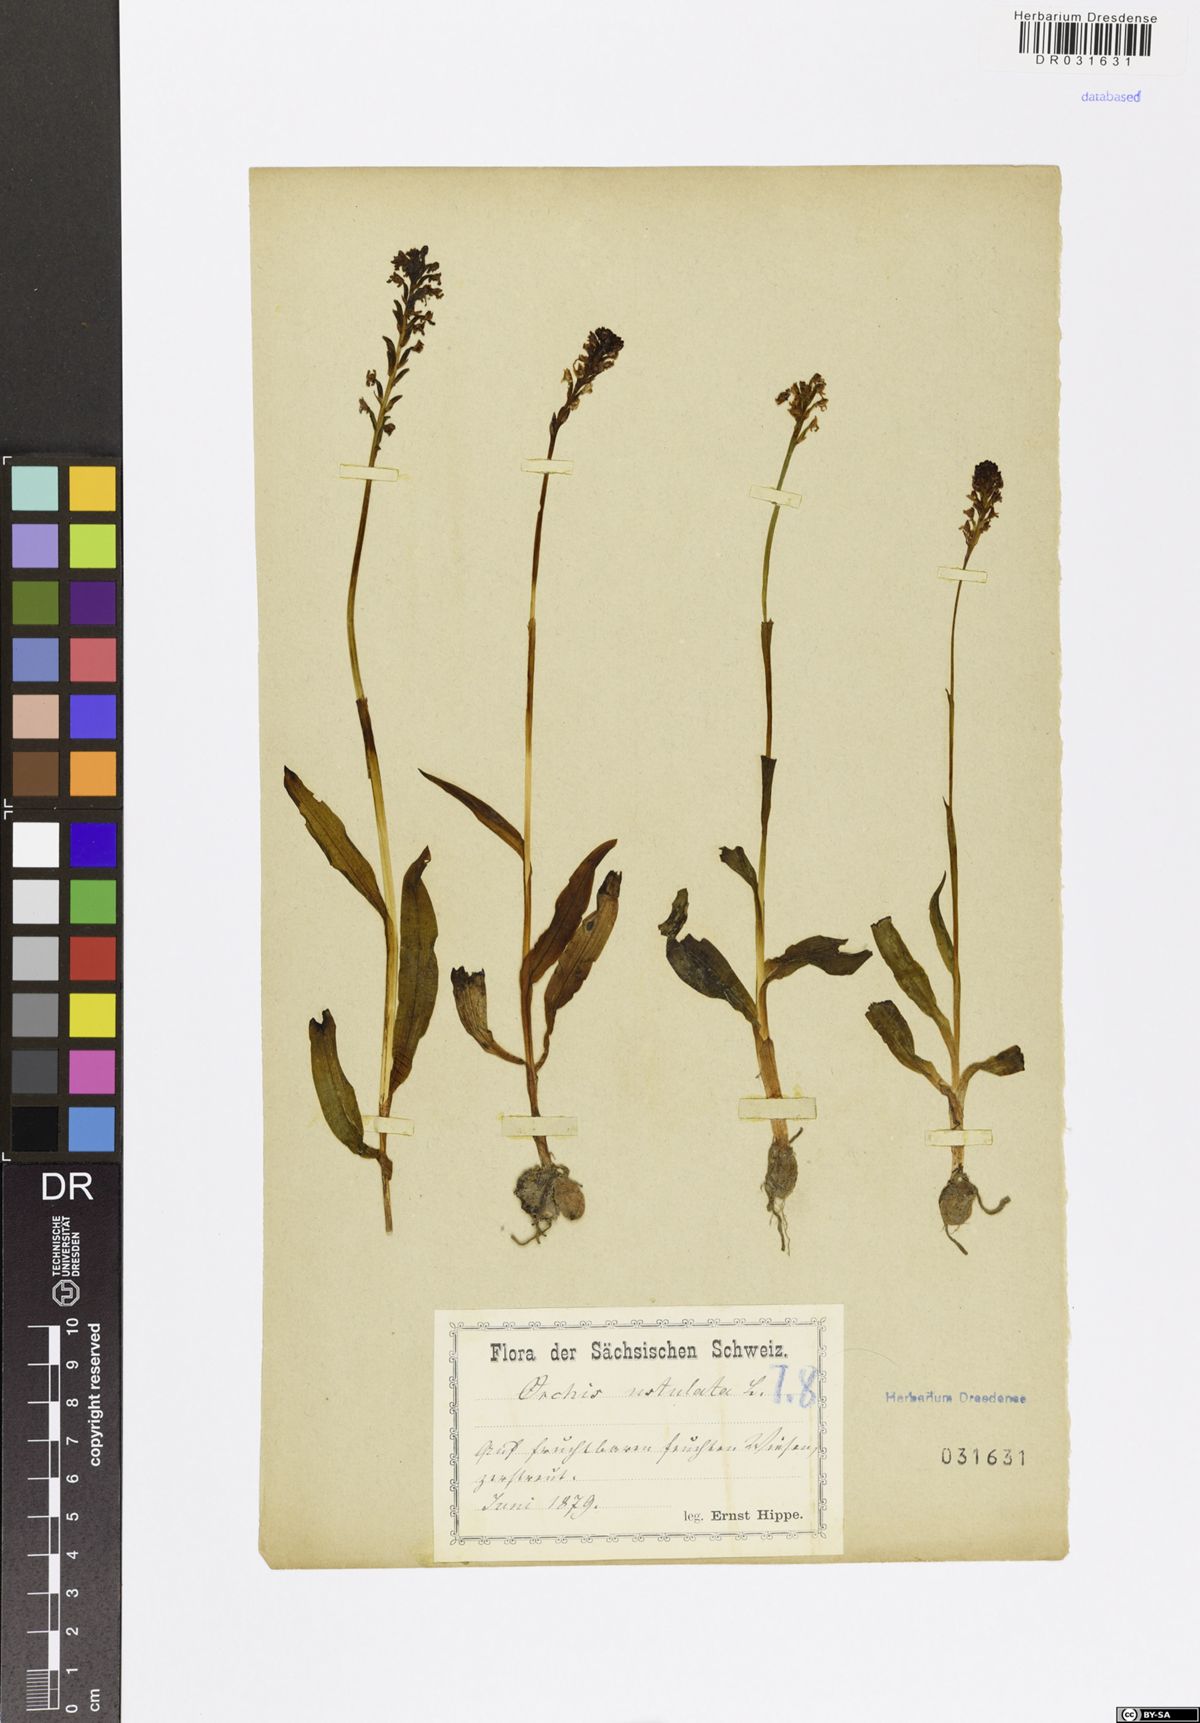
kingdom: Plantae
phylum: Tracheophyta
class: Liliopsida
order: Asparagales
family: Orchidaceae
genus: Neotinea
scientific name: Neotinea ustulata
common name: Burnt orchid
